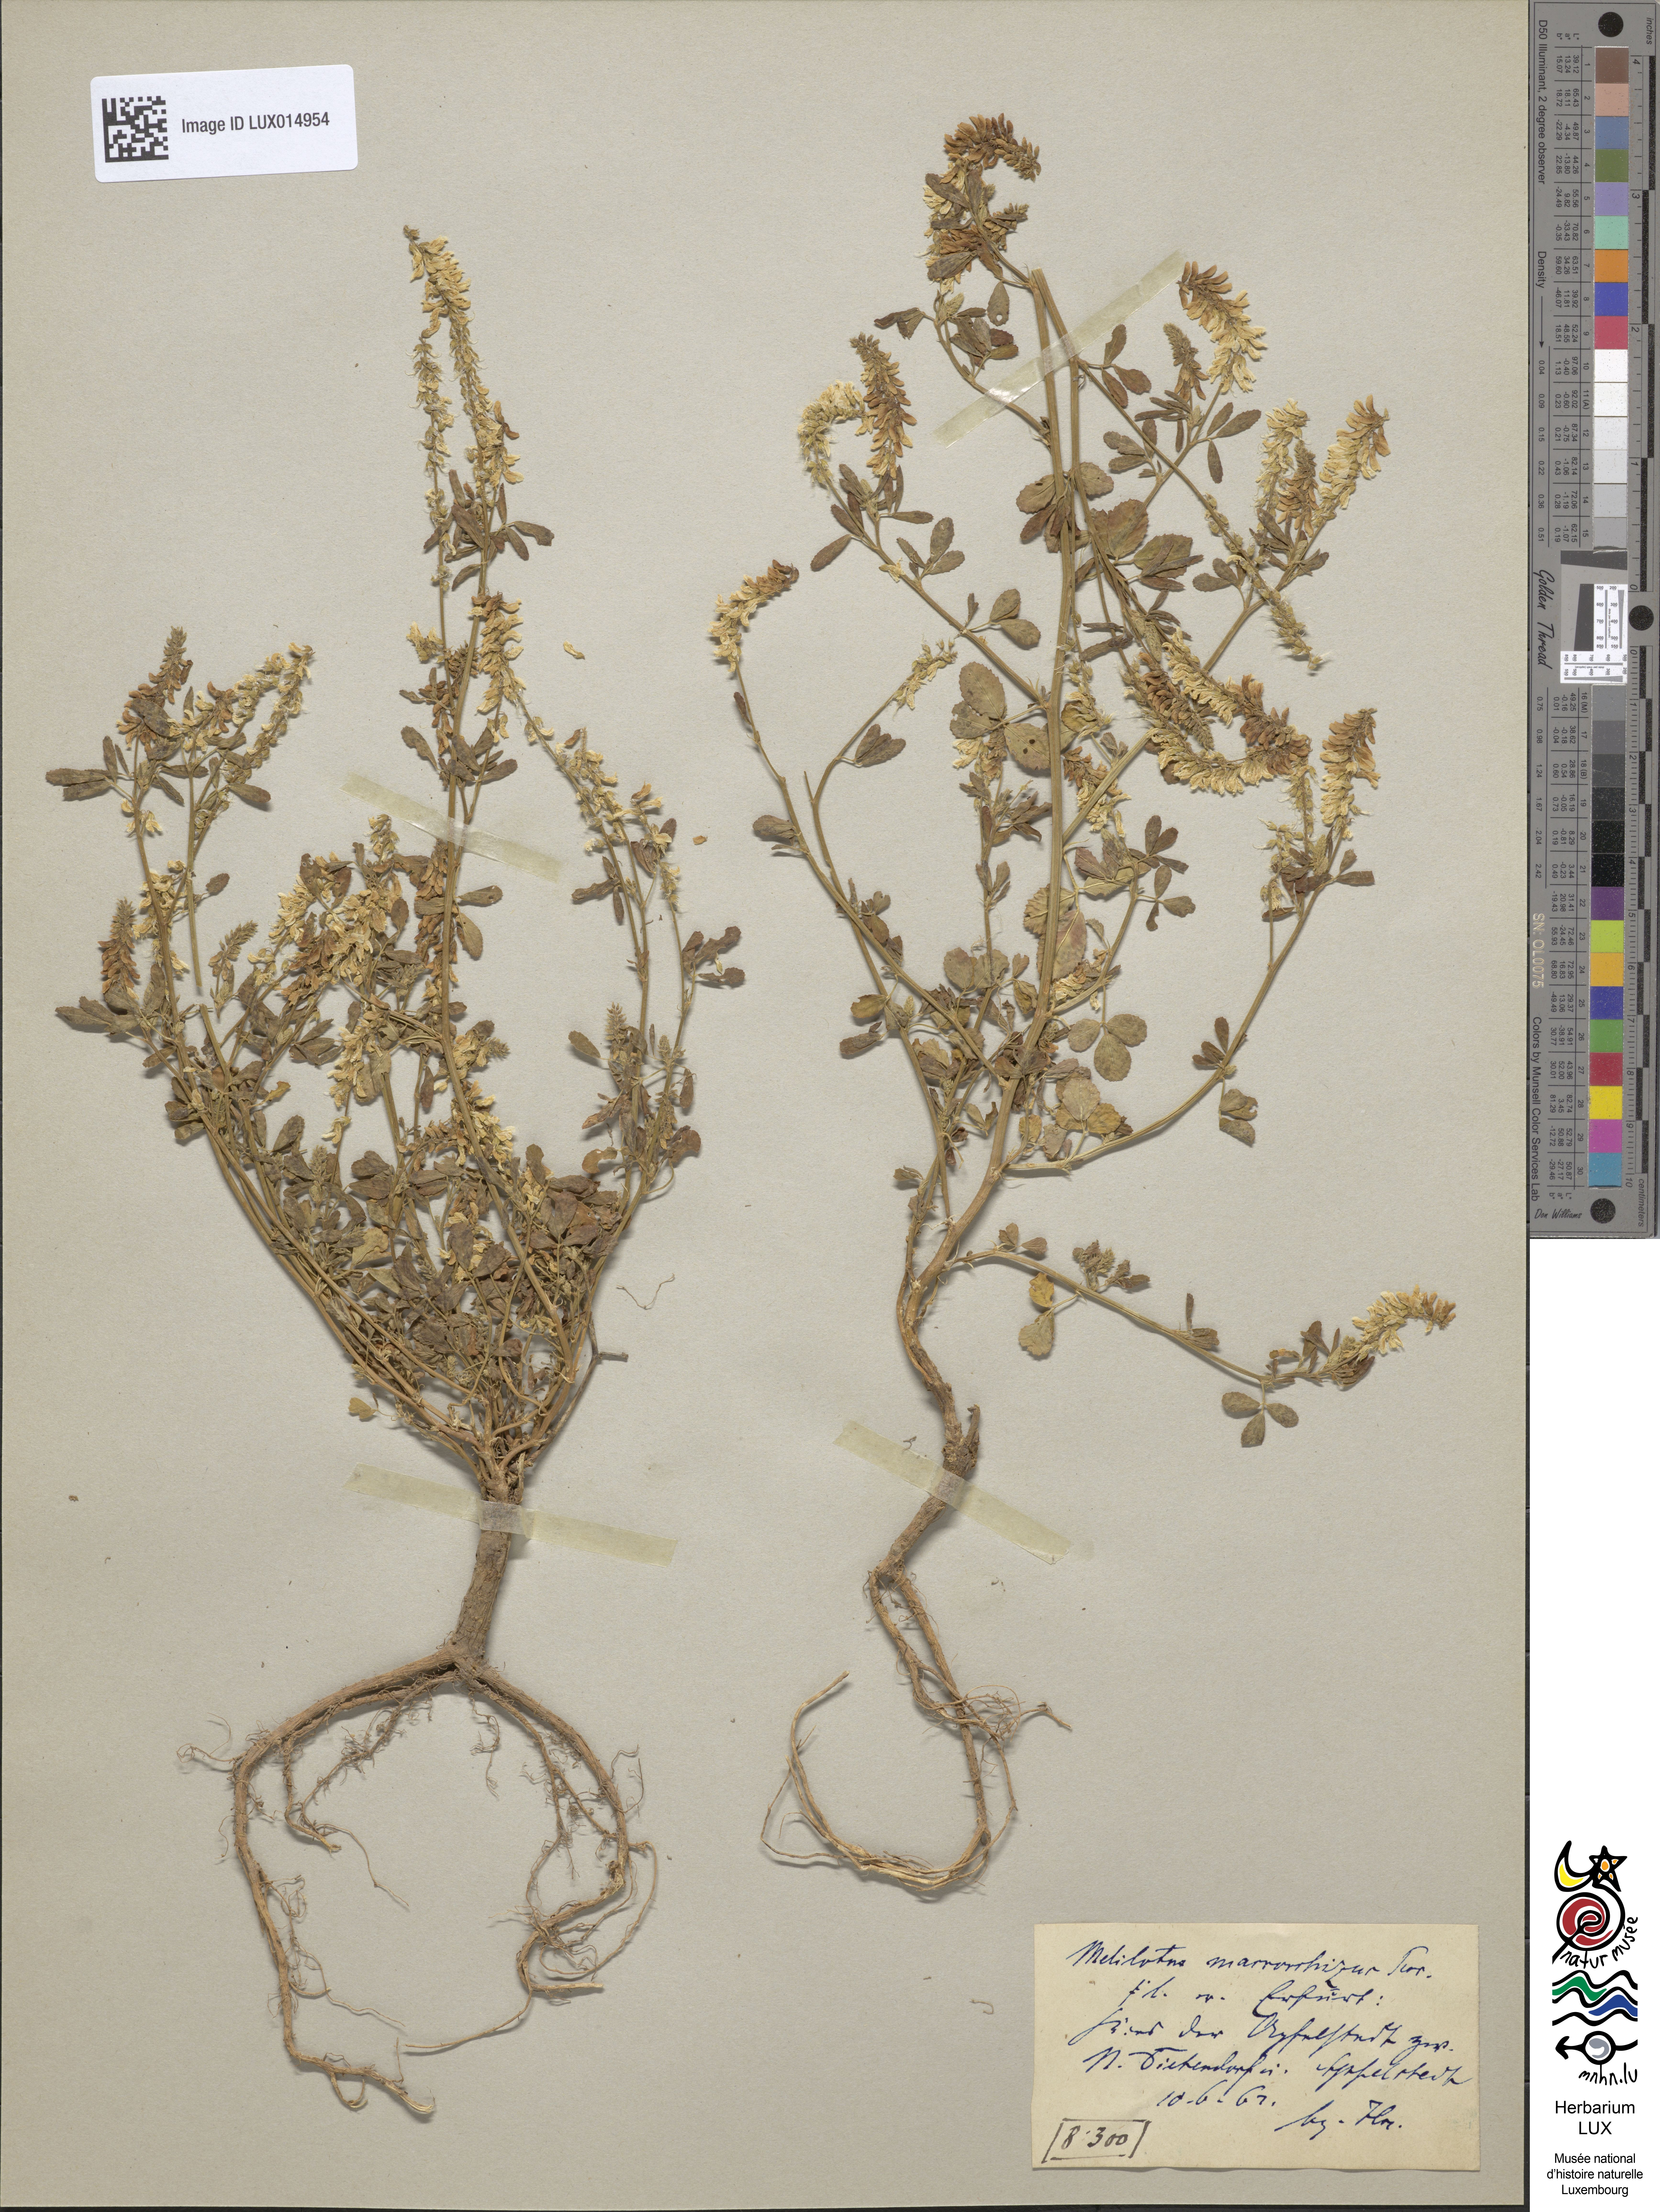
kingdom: Plantae
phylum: Tracheophyta
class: Magnoliopsida
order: Fabales
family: Fabaceae
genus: Melilotus
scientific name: Melilotus altissimus
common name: Tall melilot
